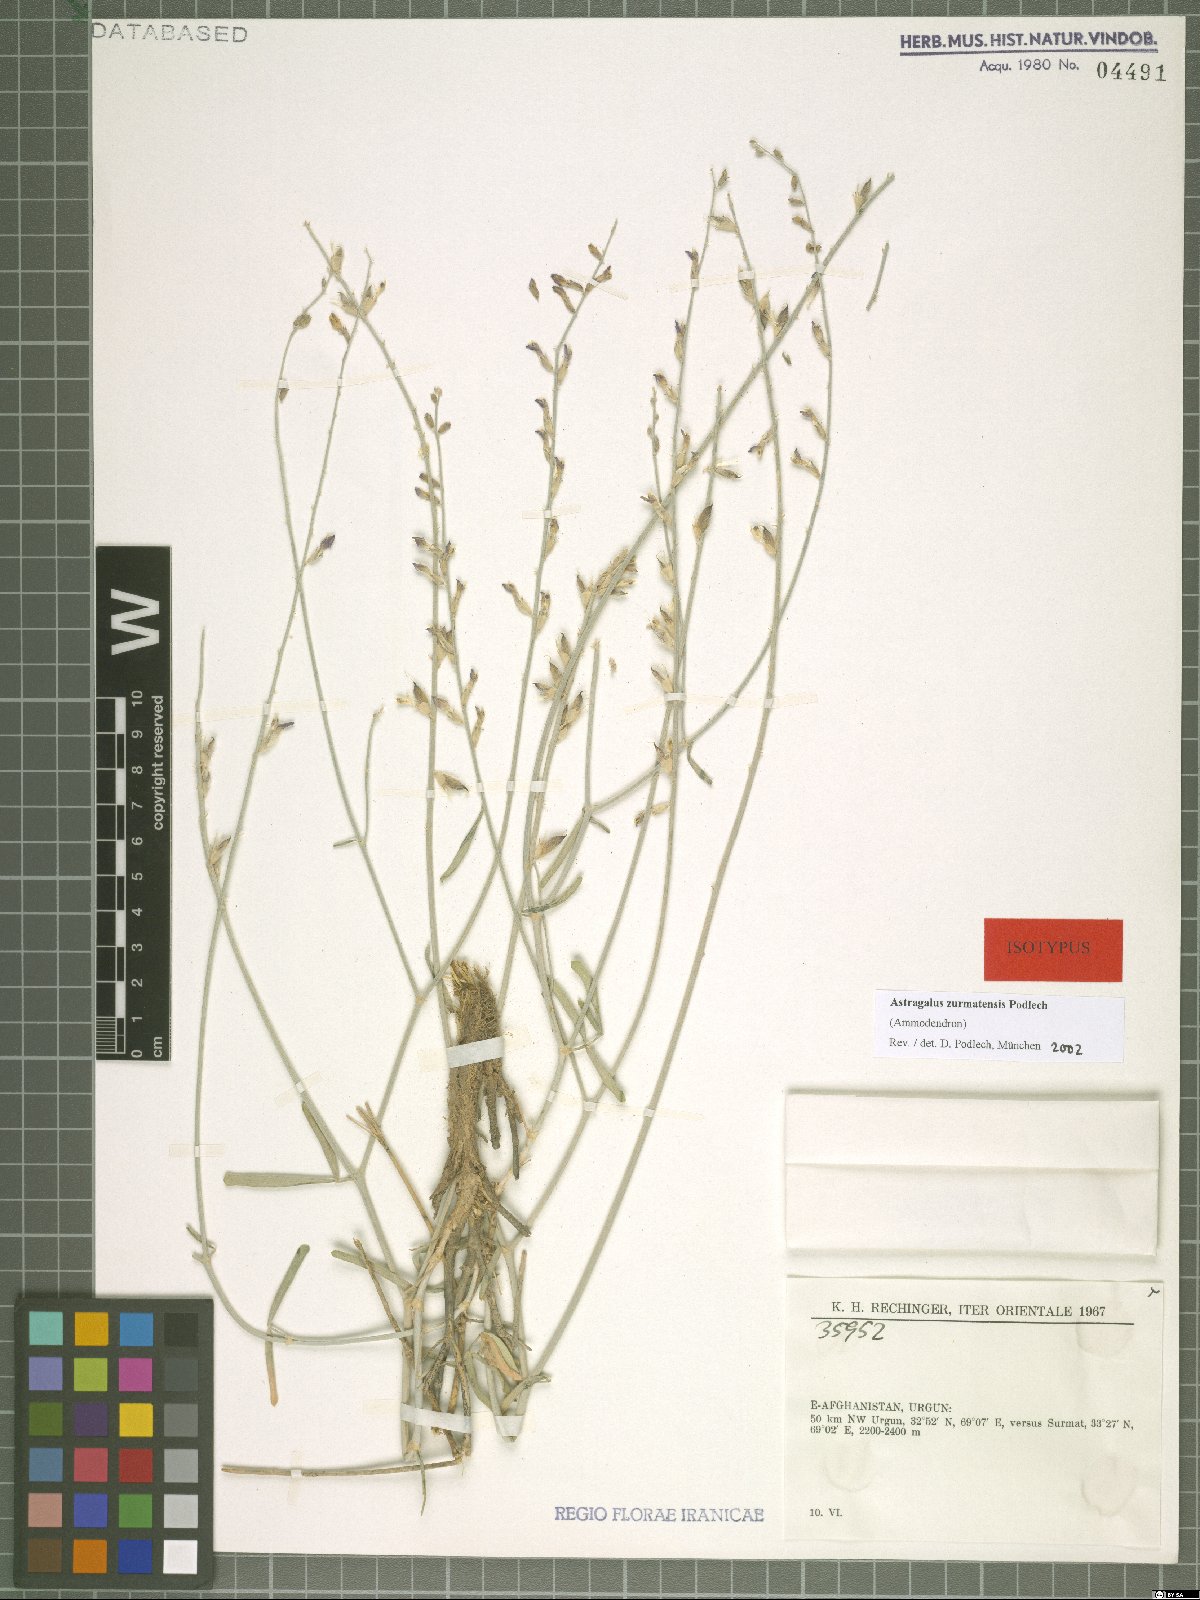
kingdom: Plantae
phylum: Tracheophyta
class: Magnoliopsida
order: Fabales
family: Fabaceae
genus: Astragalus
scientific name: Astragalus zurmatensis
